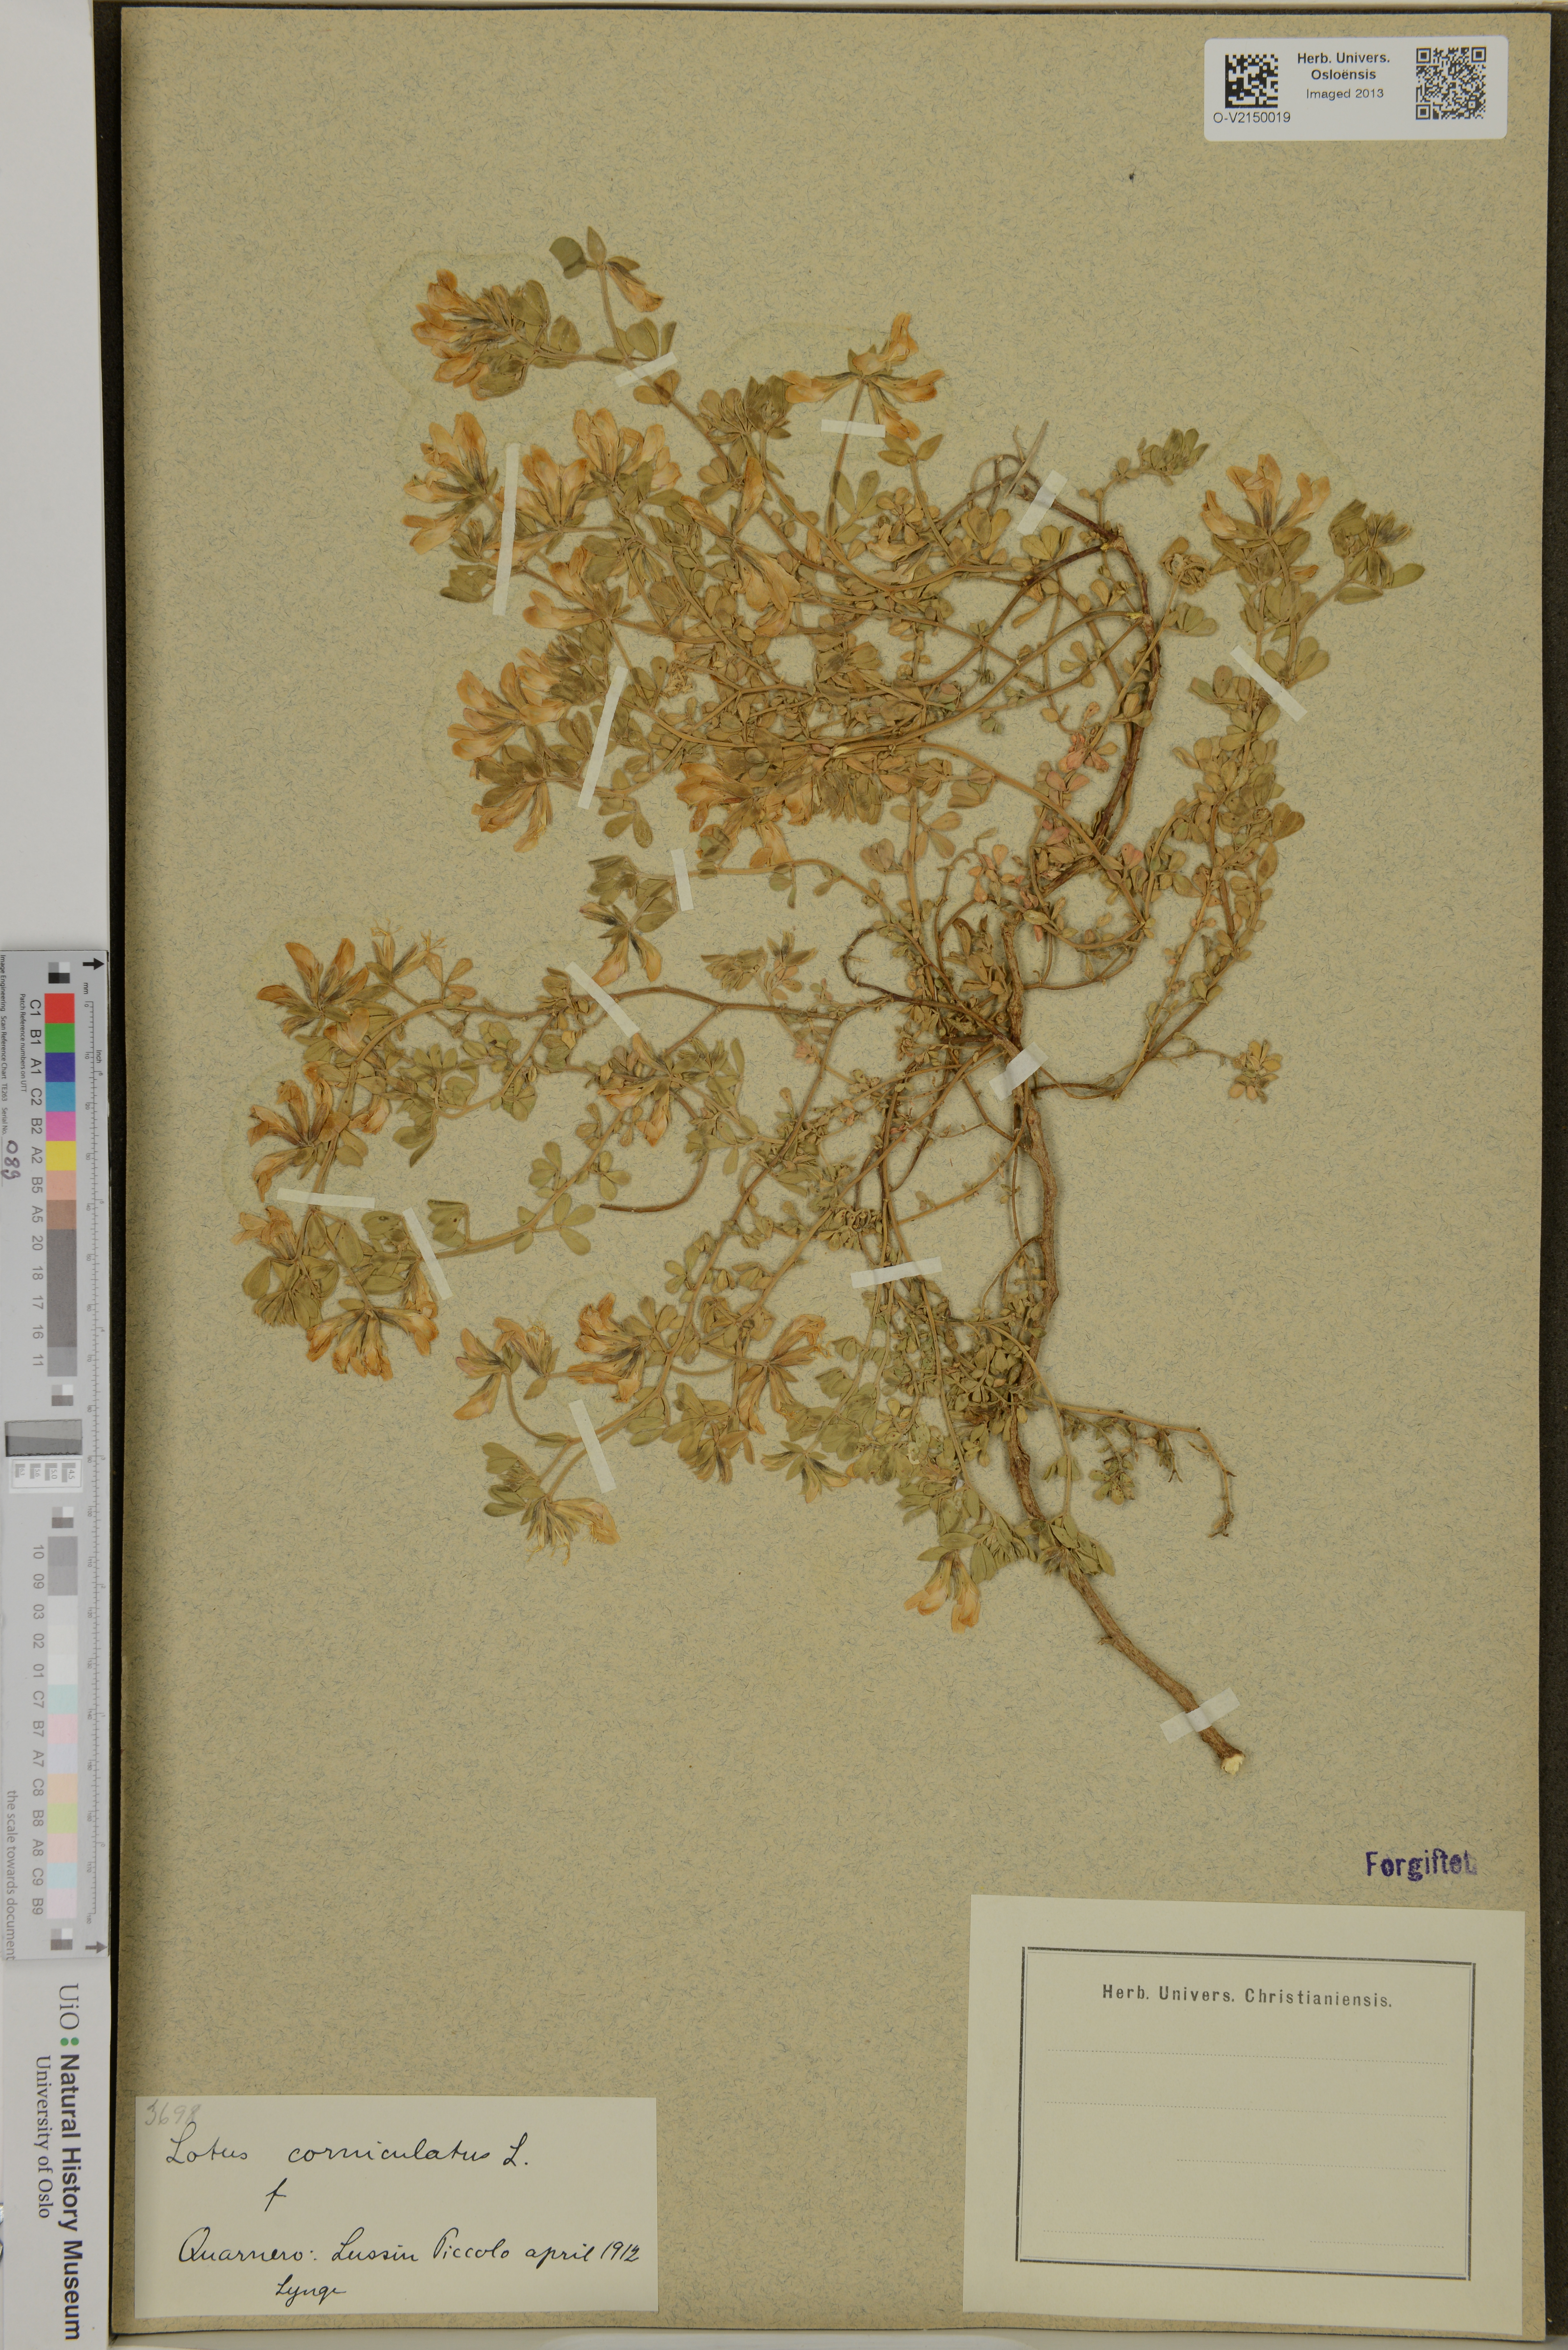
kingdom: Plantae
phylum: Tracheophyta
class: Magnoliopsida
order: Fabales
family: Fabaceae
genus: Lotus
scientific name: Lotus corniculatus
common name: Common bird's-foot-trefoil
